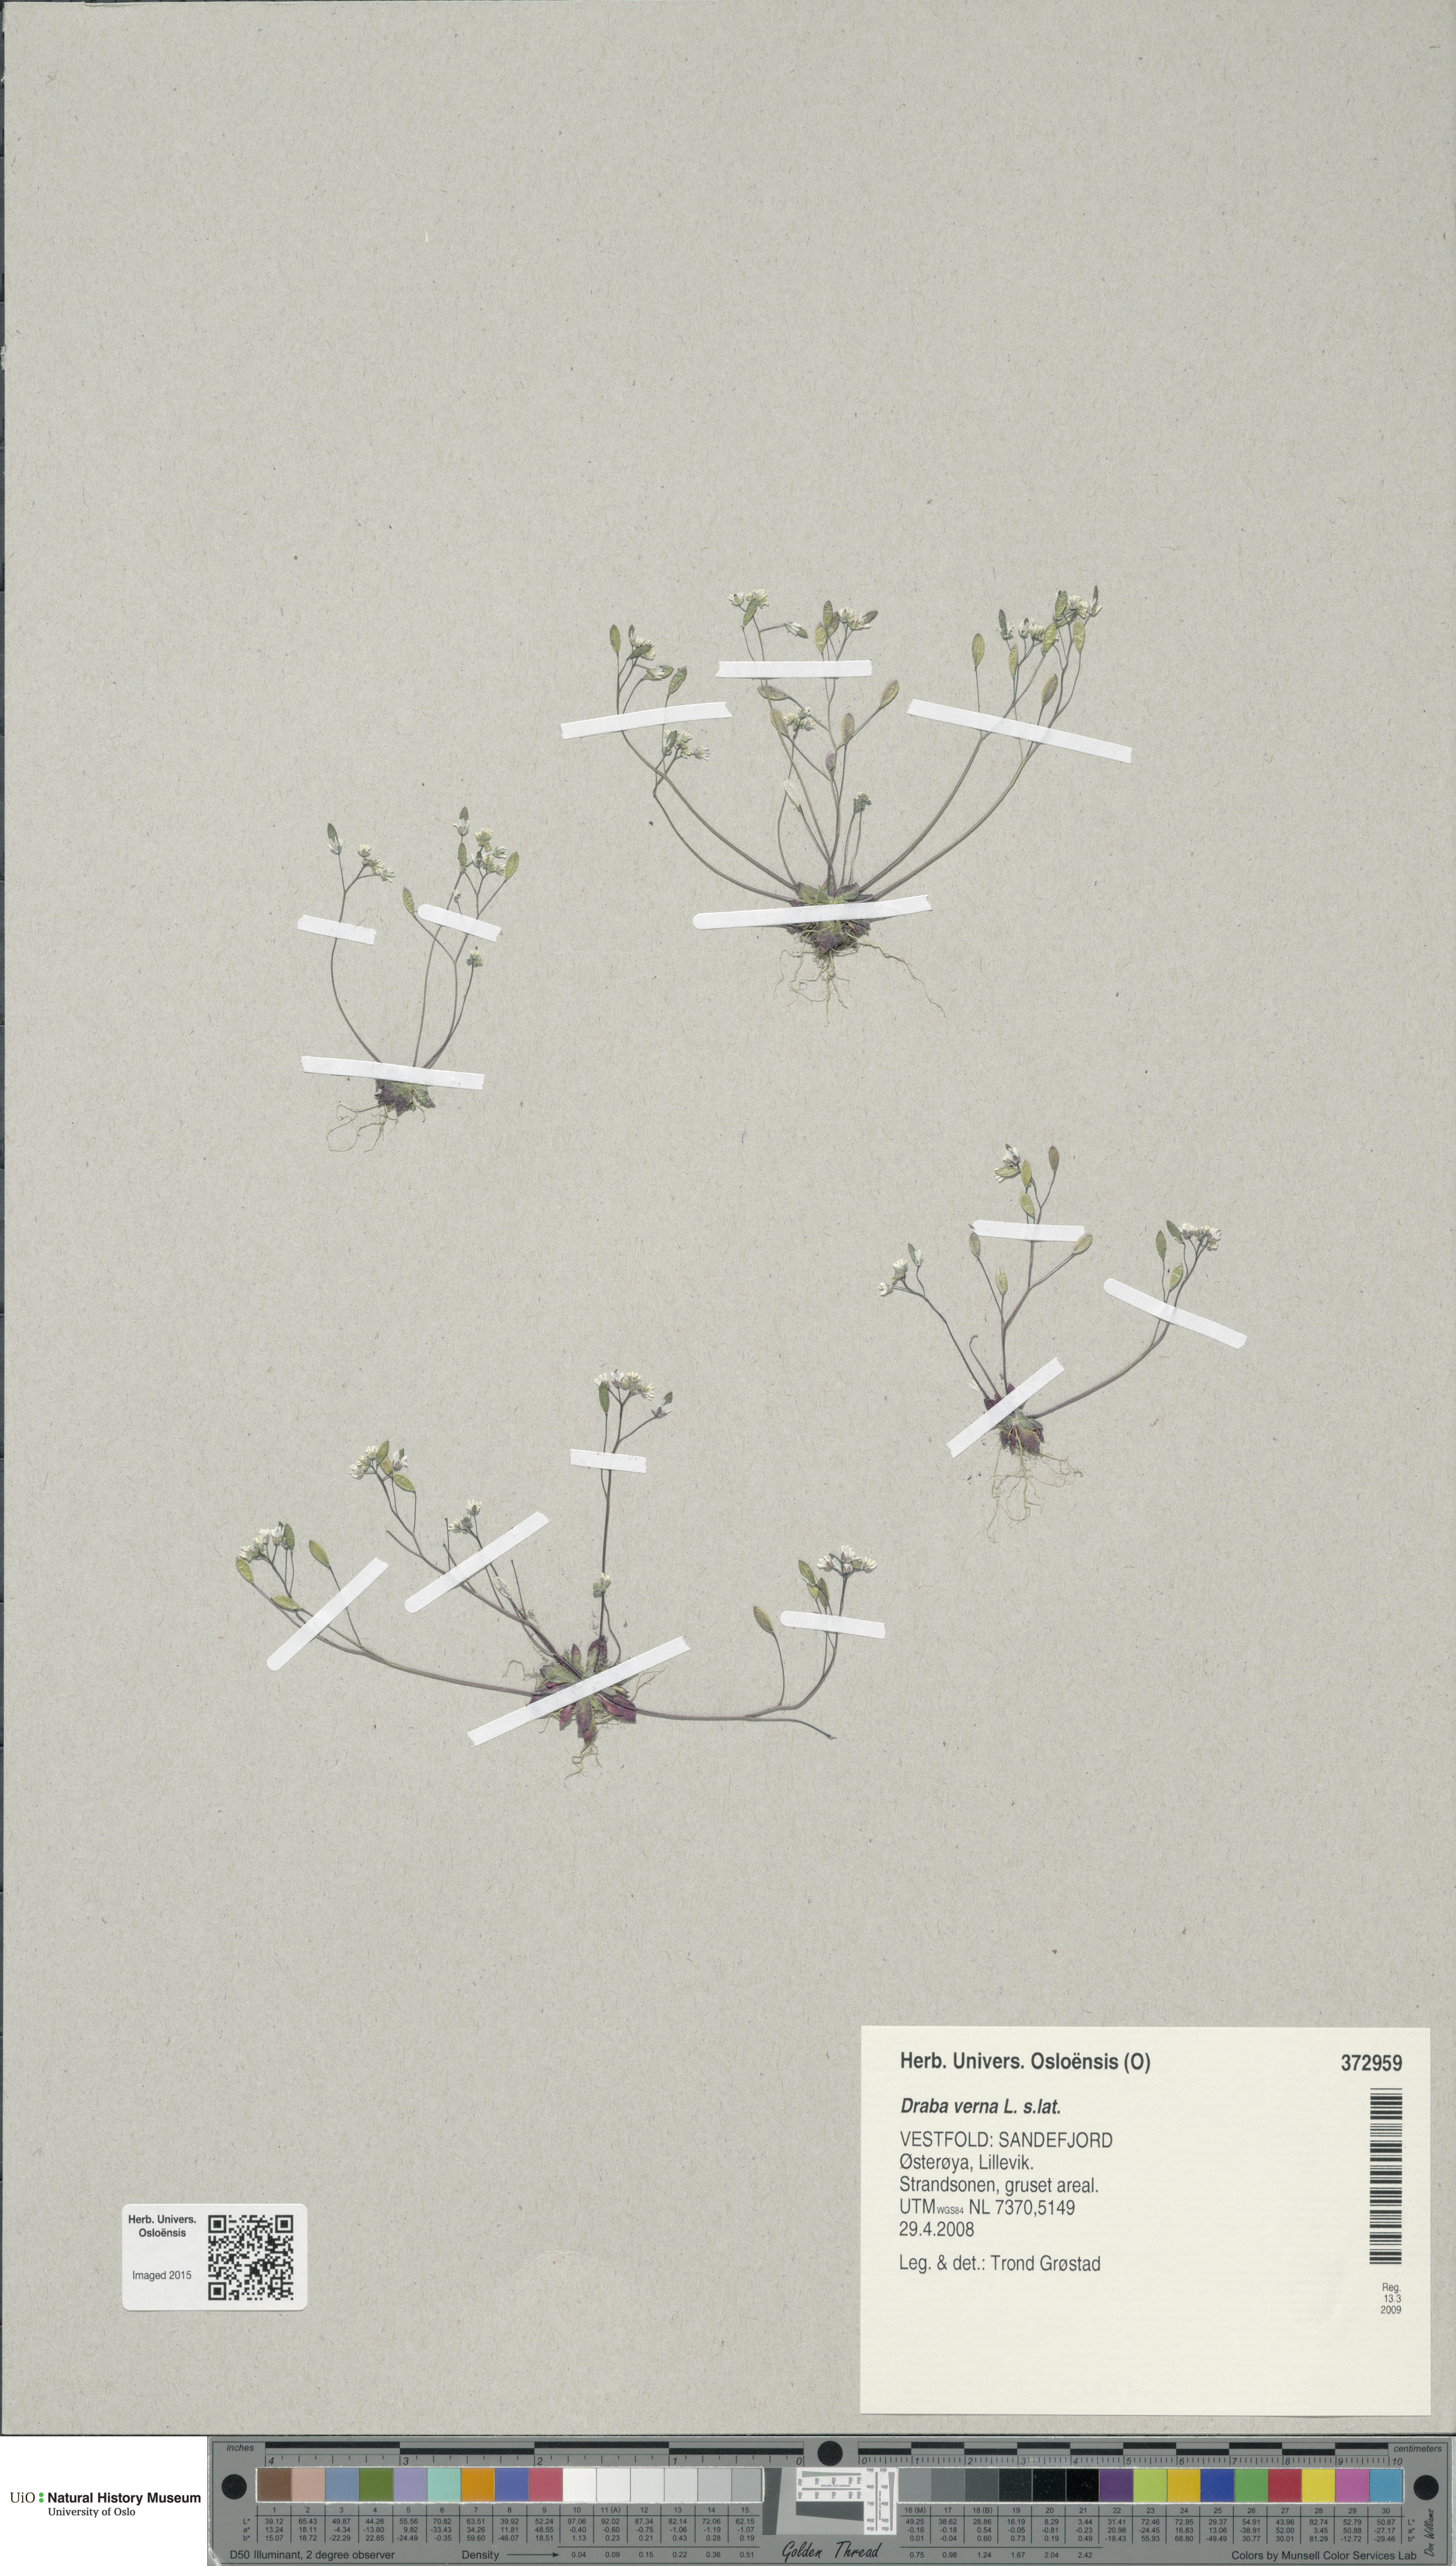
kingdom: Plantae
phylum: Tracheophyta
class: Magnoliopsida
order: Brassicales
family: Brassicaceae
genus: Draba
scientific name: Draba verna
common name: Spring draba
